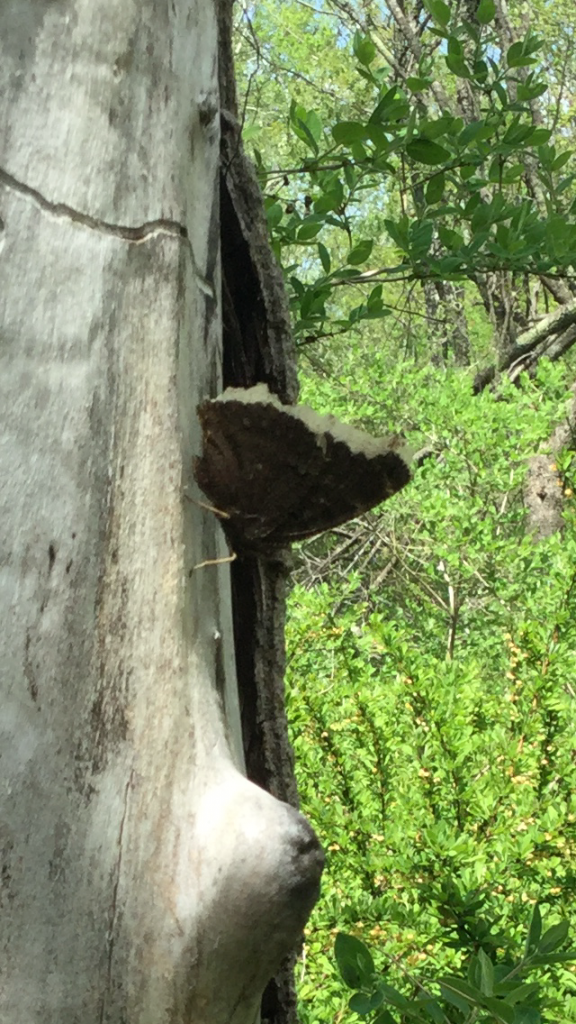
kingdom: Animalia
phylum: Arthropoda
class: Insecta
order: Lepidoptera
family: Nymphalidae
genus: Nymphalis
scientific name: Nymphalis antiopa
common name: Mourning Cloak
